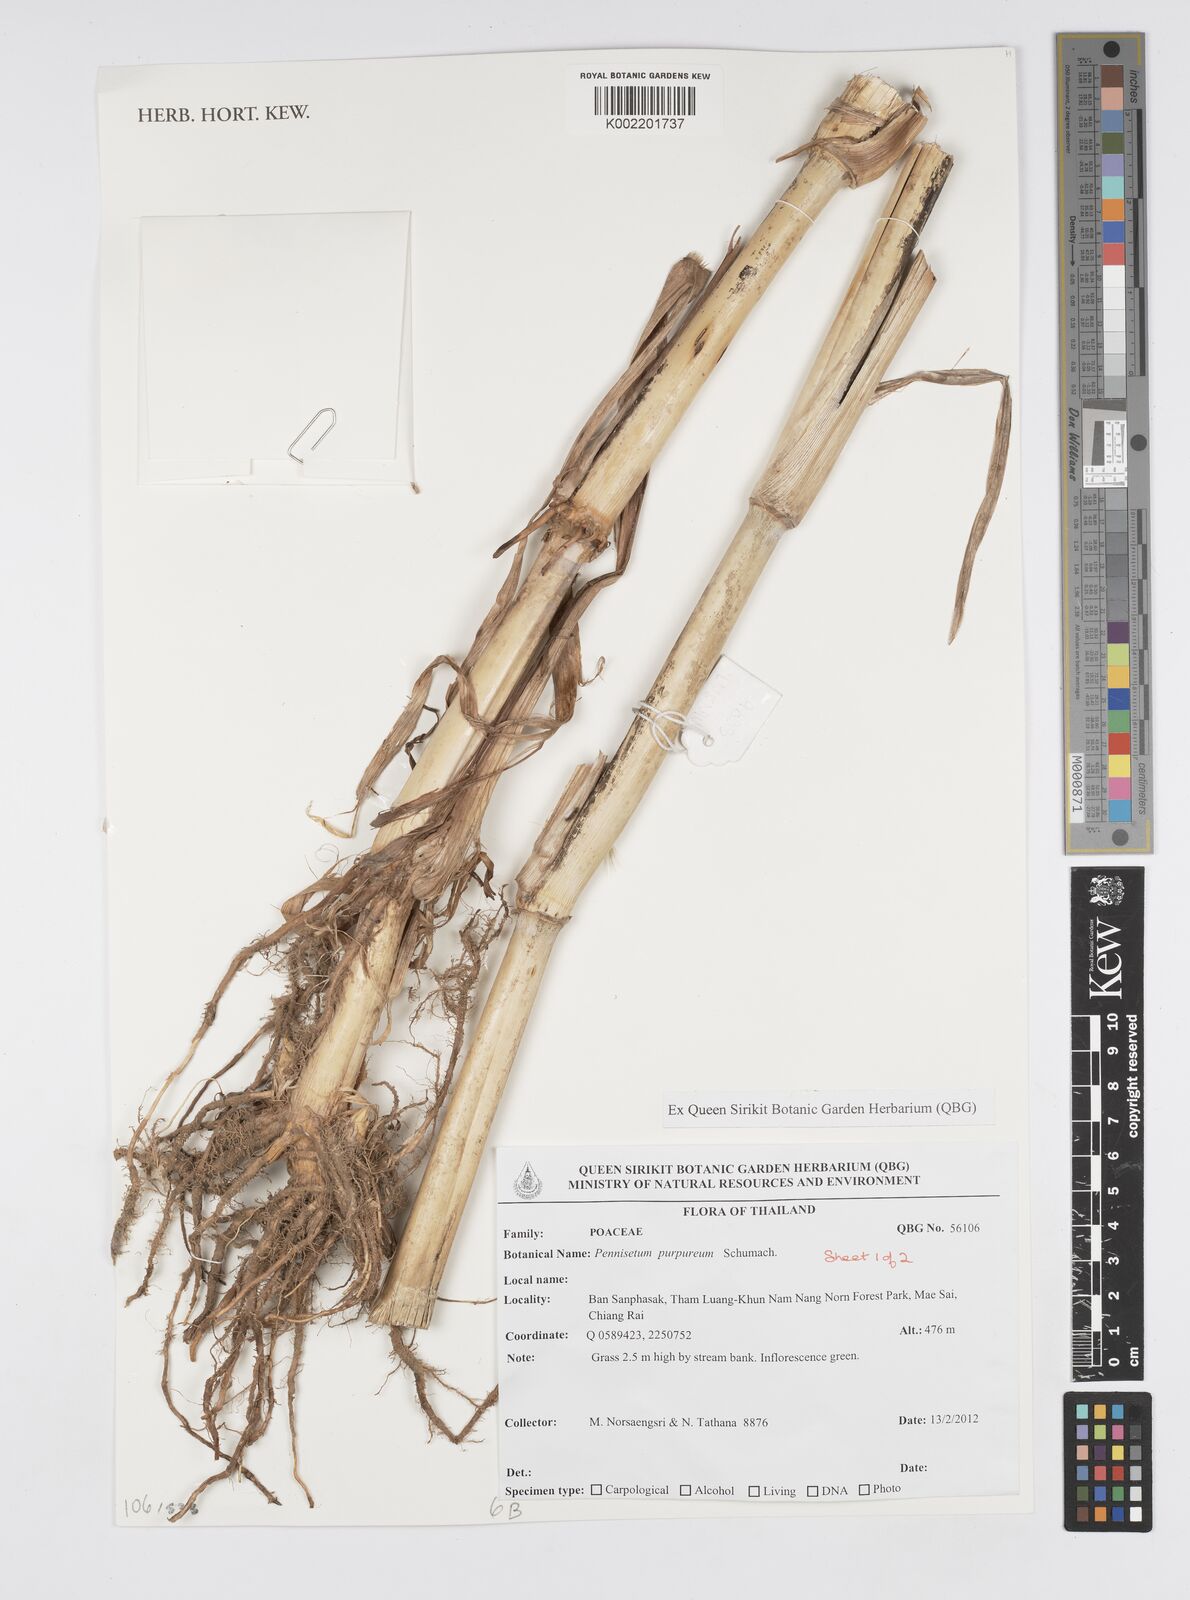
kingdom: Plantae
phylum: Tracheophyta
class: Liliopsida
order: Poales
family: Poaceae
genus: Cenchrus
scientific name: Cenchrus purpureus
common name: Elephant grass
